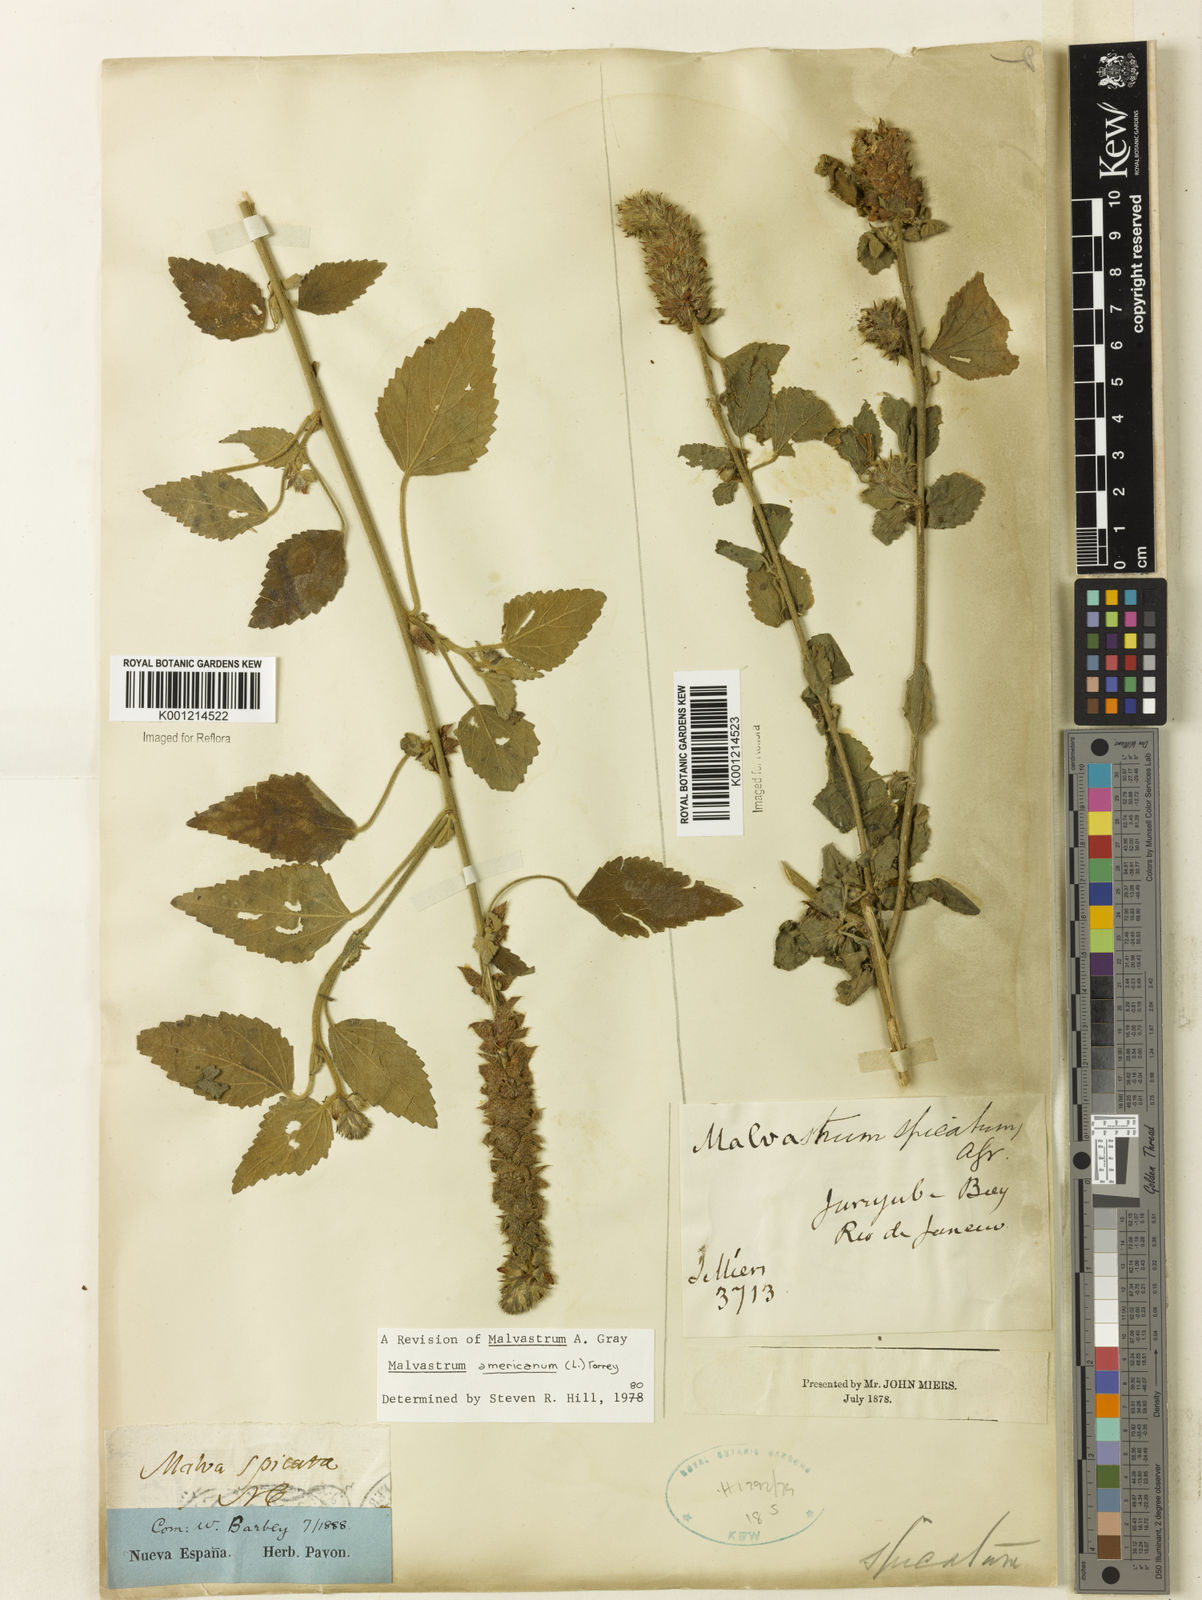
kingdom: Plantae
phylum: Tracheophyta
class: Magnoliopsida
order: Malvales
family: Malvaceae
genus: Malvastrum
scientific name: Malvastrum americanum
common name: Spiked malvastrum
